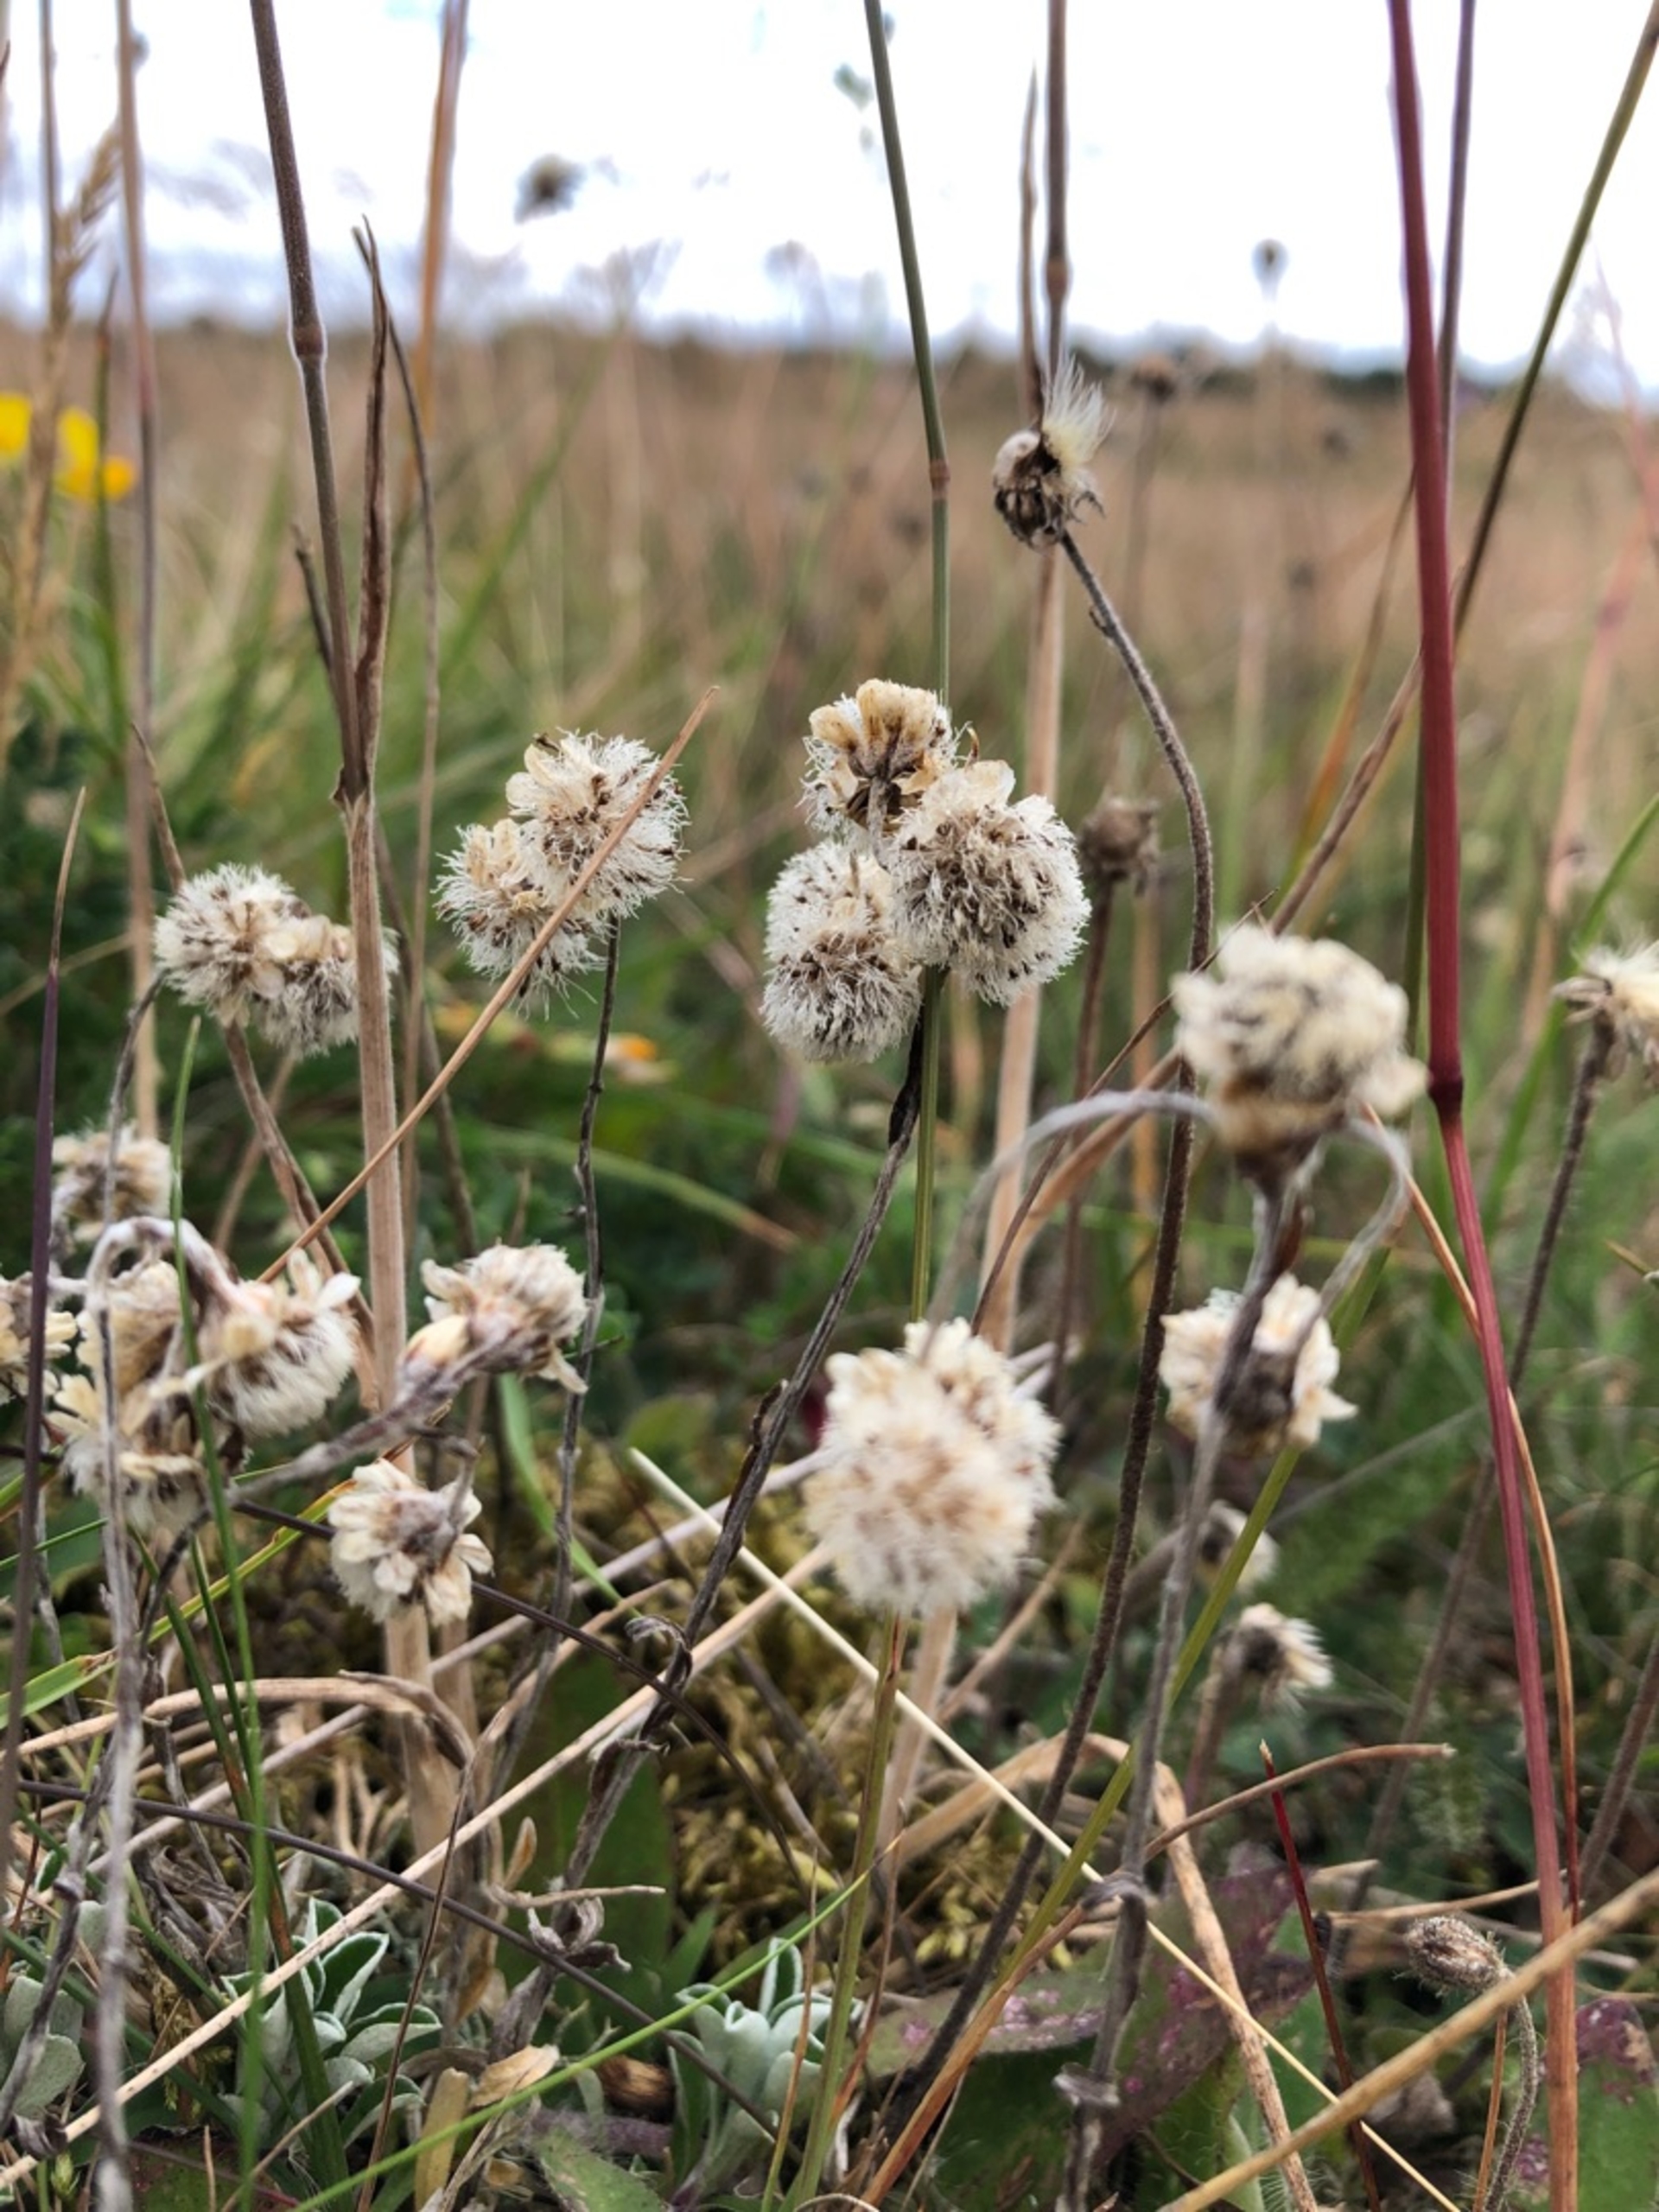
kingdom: Plantae
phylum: Tracheophyta
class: Magnoliopsida
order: Asterales
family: Asteraceae
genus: Antennaria
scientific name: Antennaria dioica
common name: Kattefod
